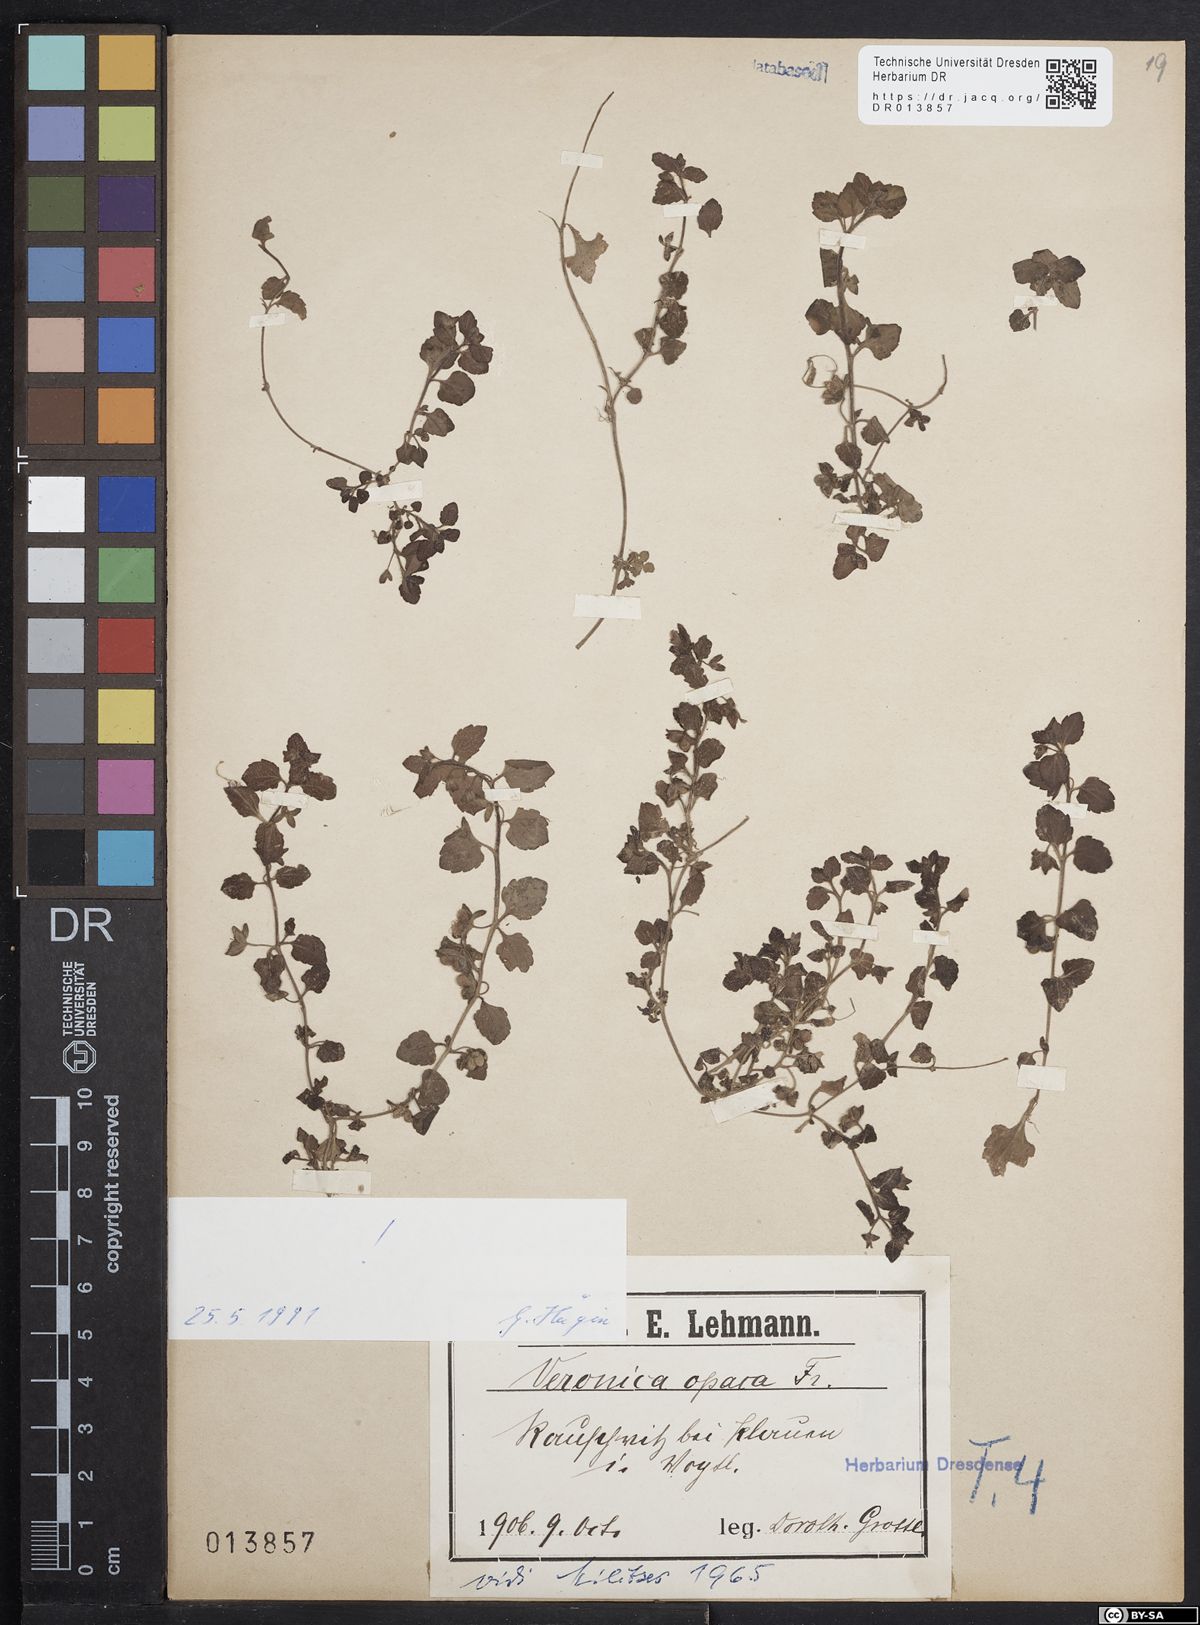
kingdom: Plantae
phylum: Tracheophyta
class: Magnoliopsida
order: Lamiales
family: Plantaginaceae
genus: Veronica
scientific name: Veronica opaca
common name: Dark speedwell
